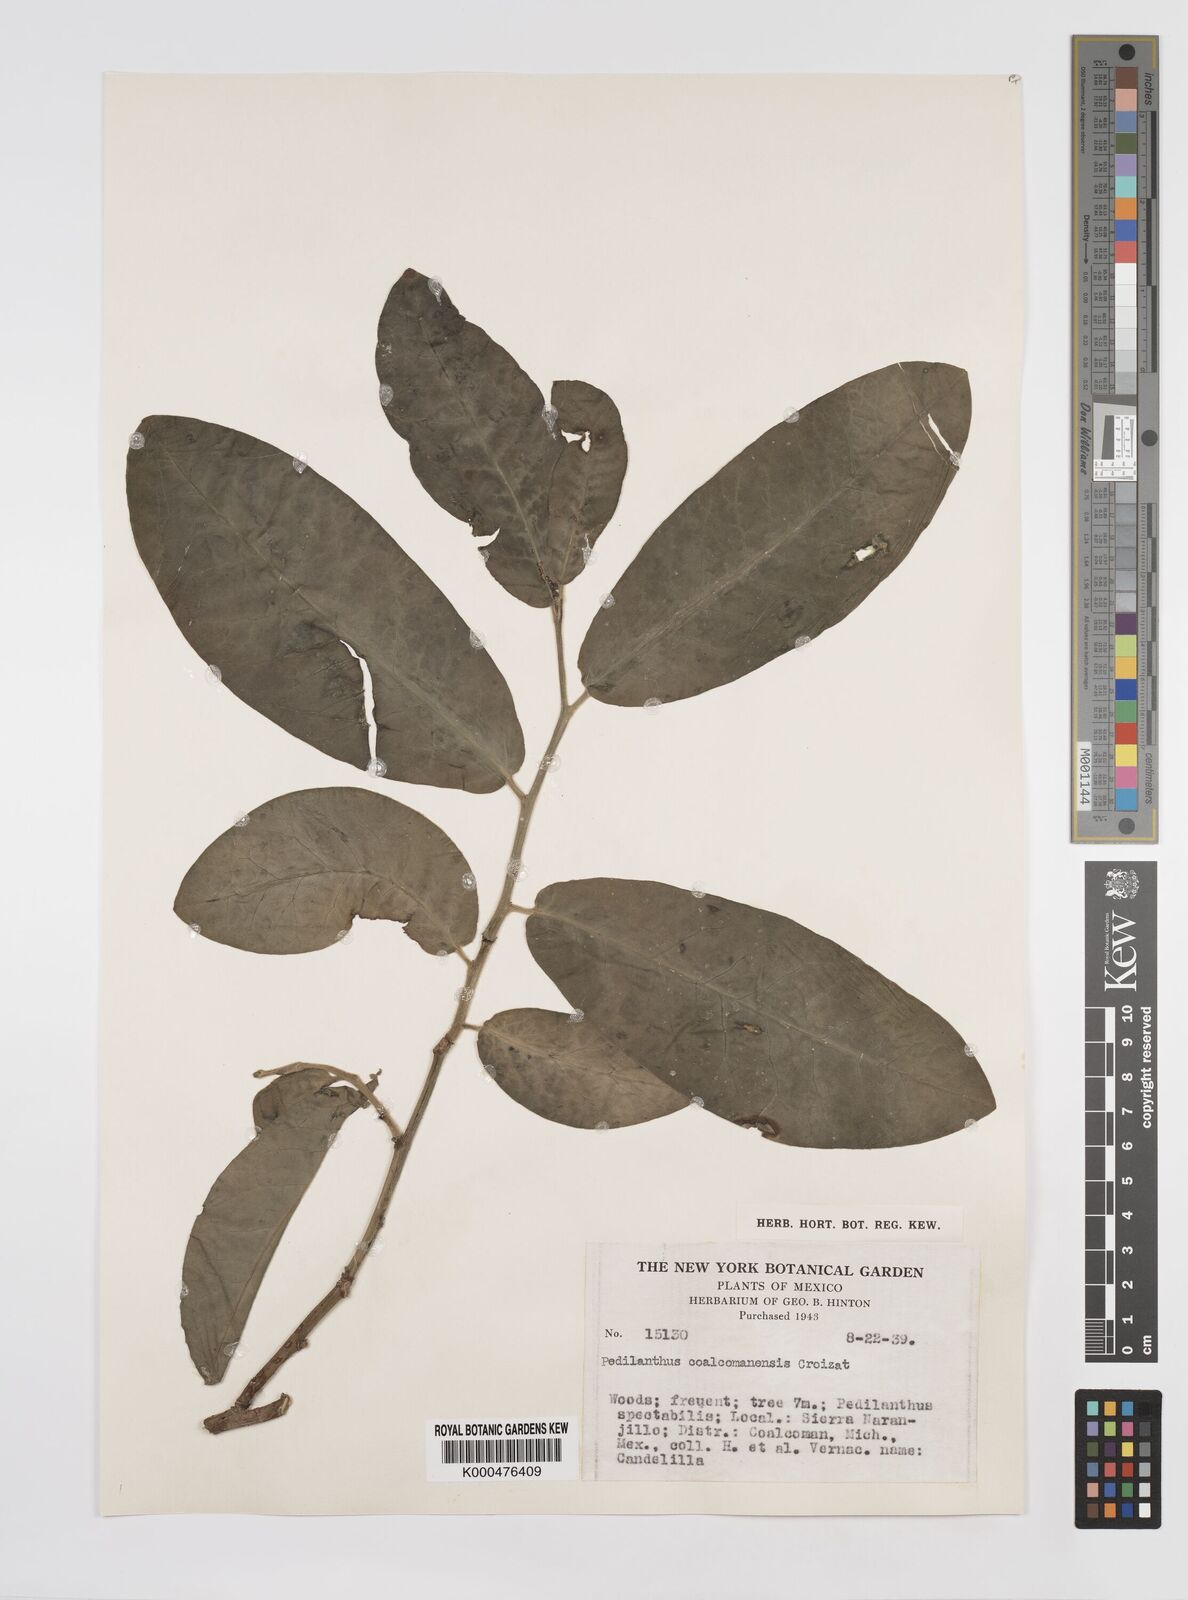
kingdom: Plantae
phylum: Tracheophyta
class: Magnoliopsida
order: Malpighiales
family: Euphorbiaceae
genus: Euphorbia
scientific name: Euphorbia coalcomanensis
